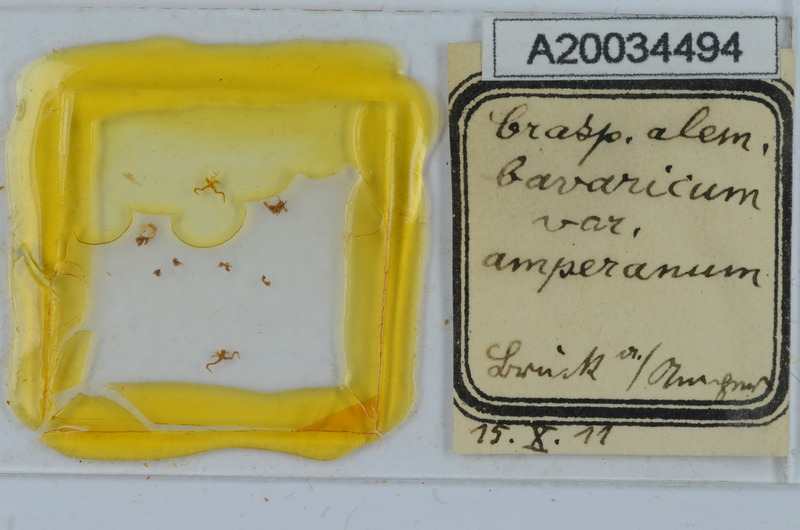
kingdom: Animalia
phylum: Arthropoda
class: Diplopoda
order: Chordeumatida
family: Craspedosomatidae
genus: Craspedosoma
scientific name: Craspedosoma rawlinsii
